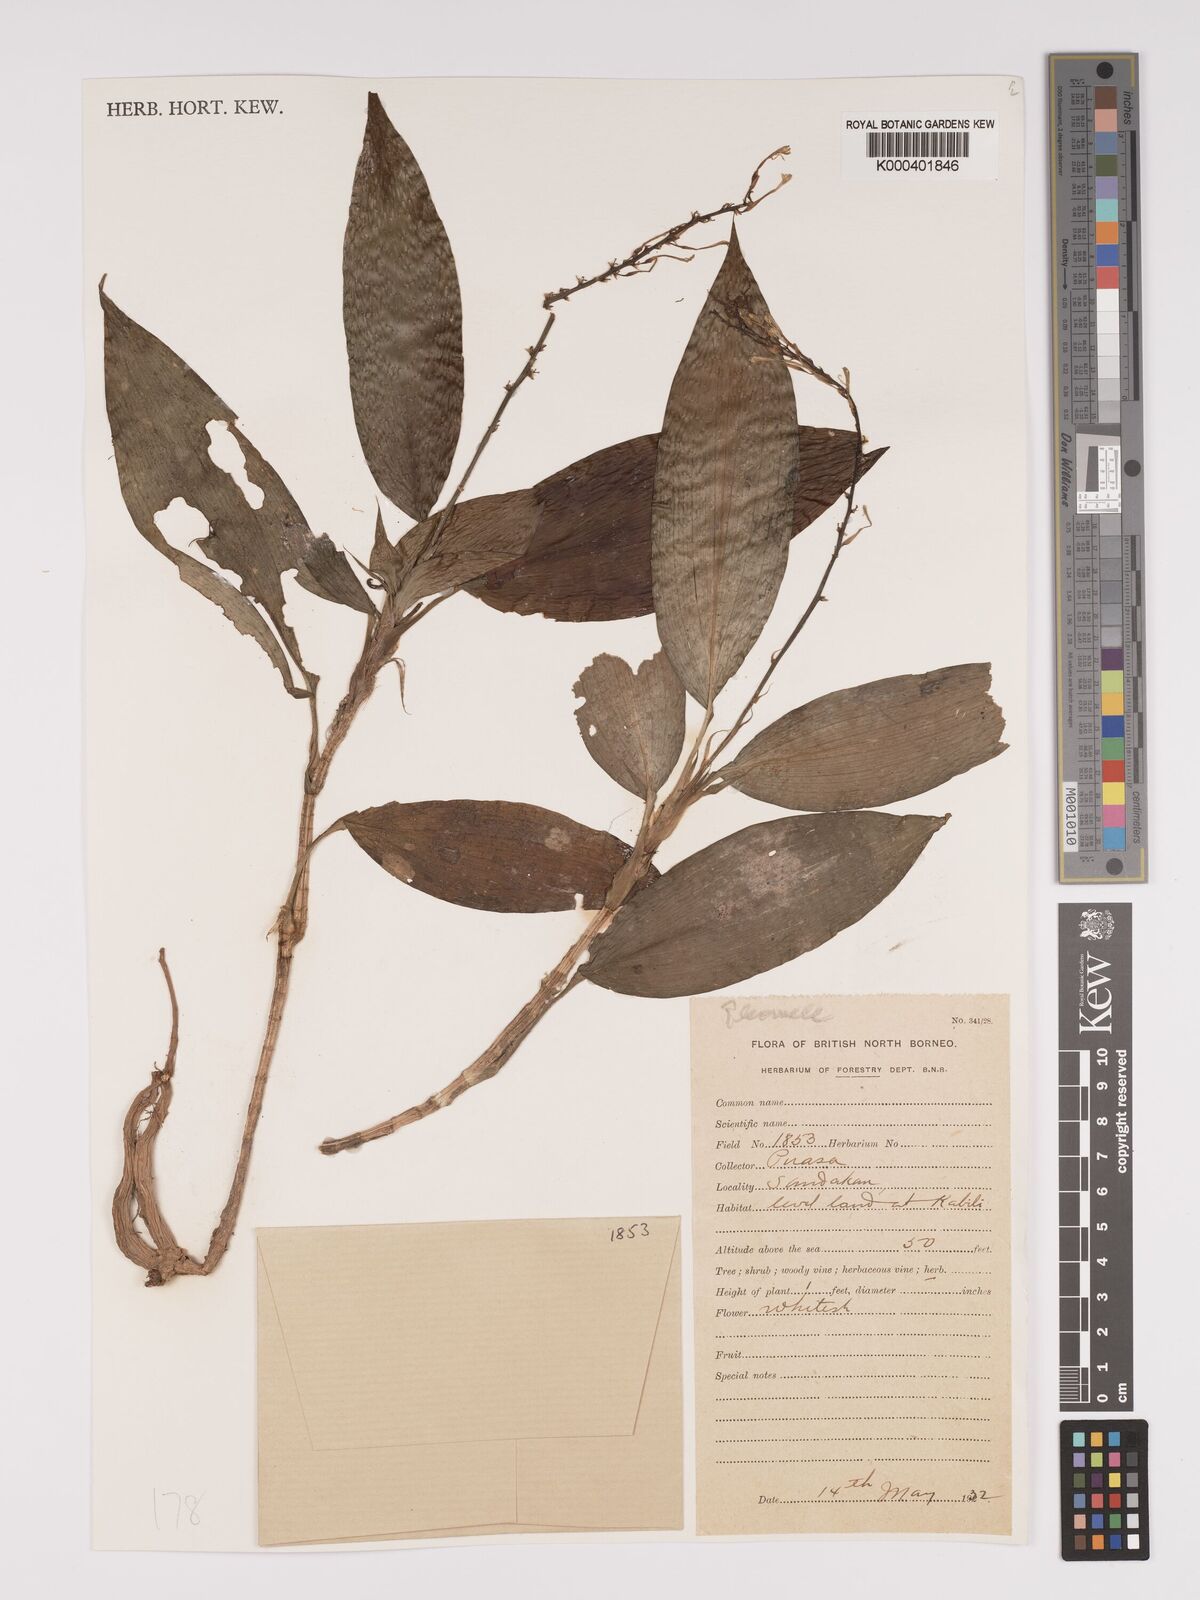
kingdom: Plantae
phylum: Tracheophyta
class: Liliopsida
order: Asparagales
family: Asparagaceae
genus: Dracaena
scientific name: Dracaena
